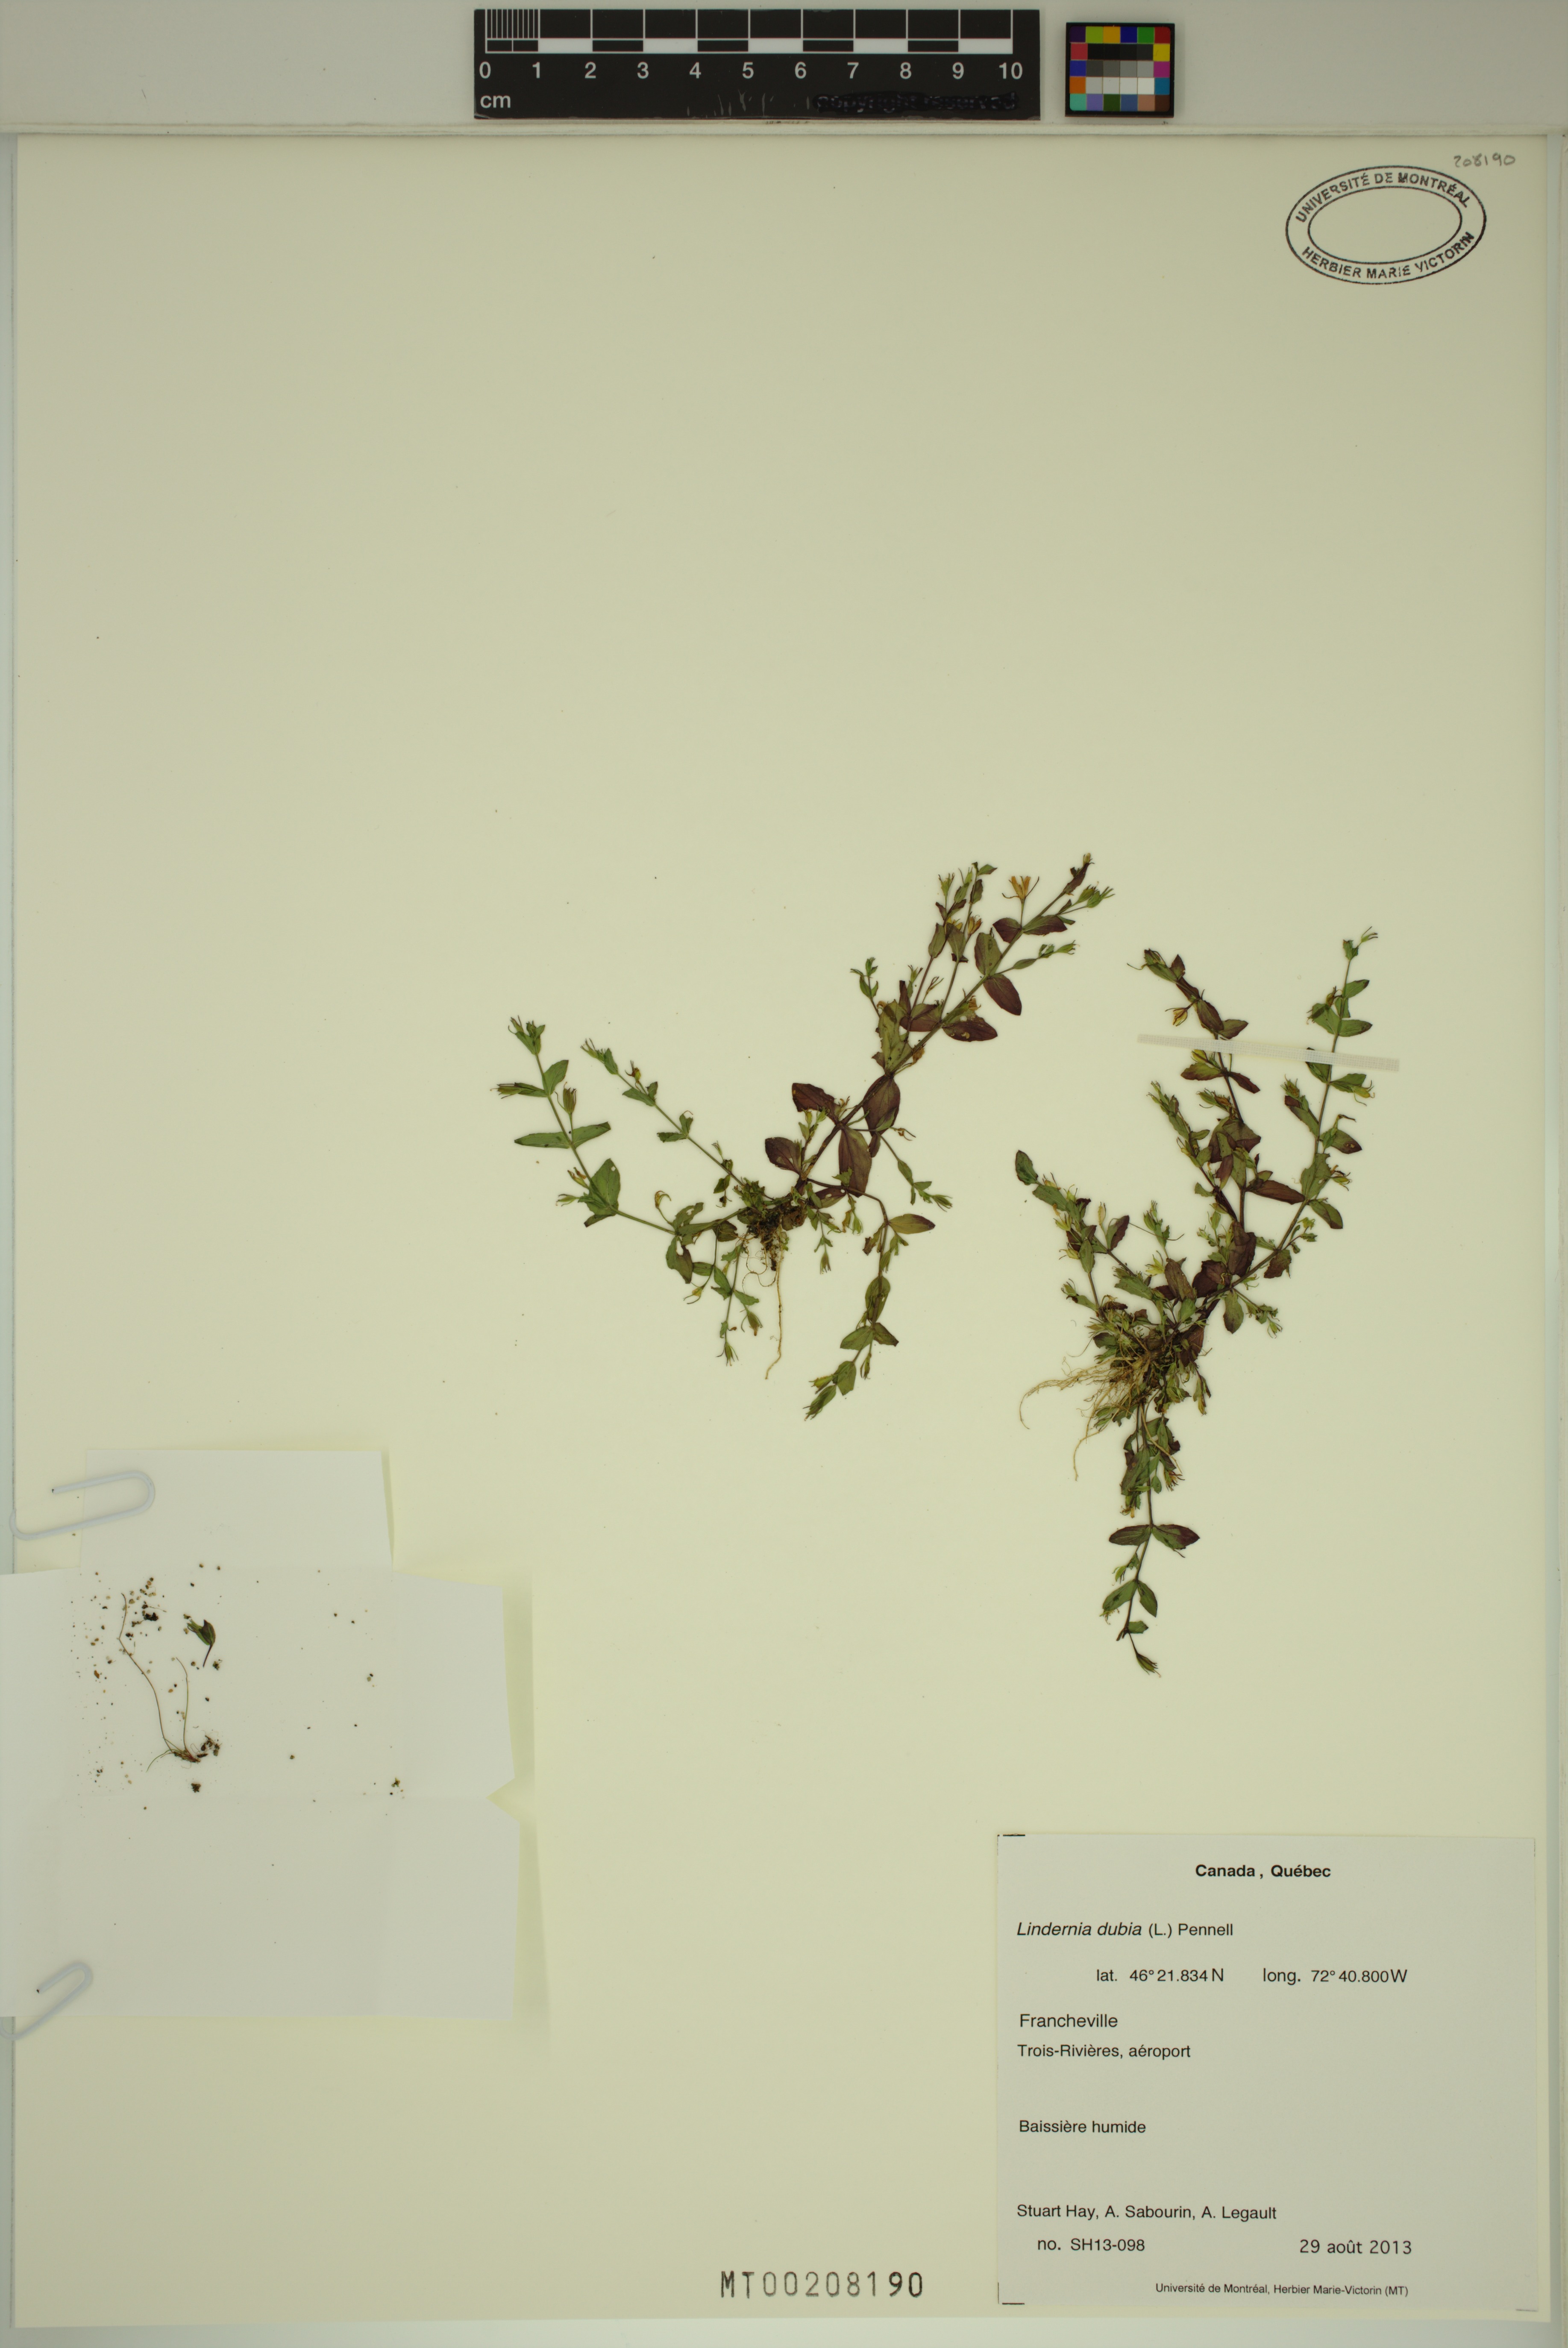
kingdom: Plantae
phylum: Tracheophyta
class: Magnoliopsida
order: Lamiales
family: Linderniaceae
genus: Lindernia
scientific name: Lindernia dubia
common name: Annual false pimpernel
